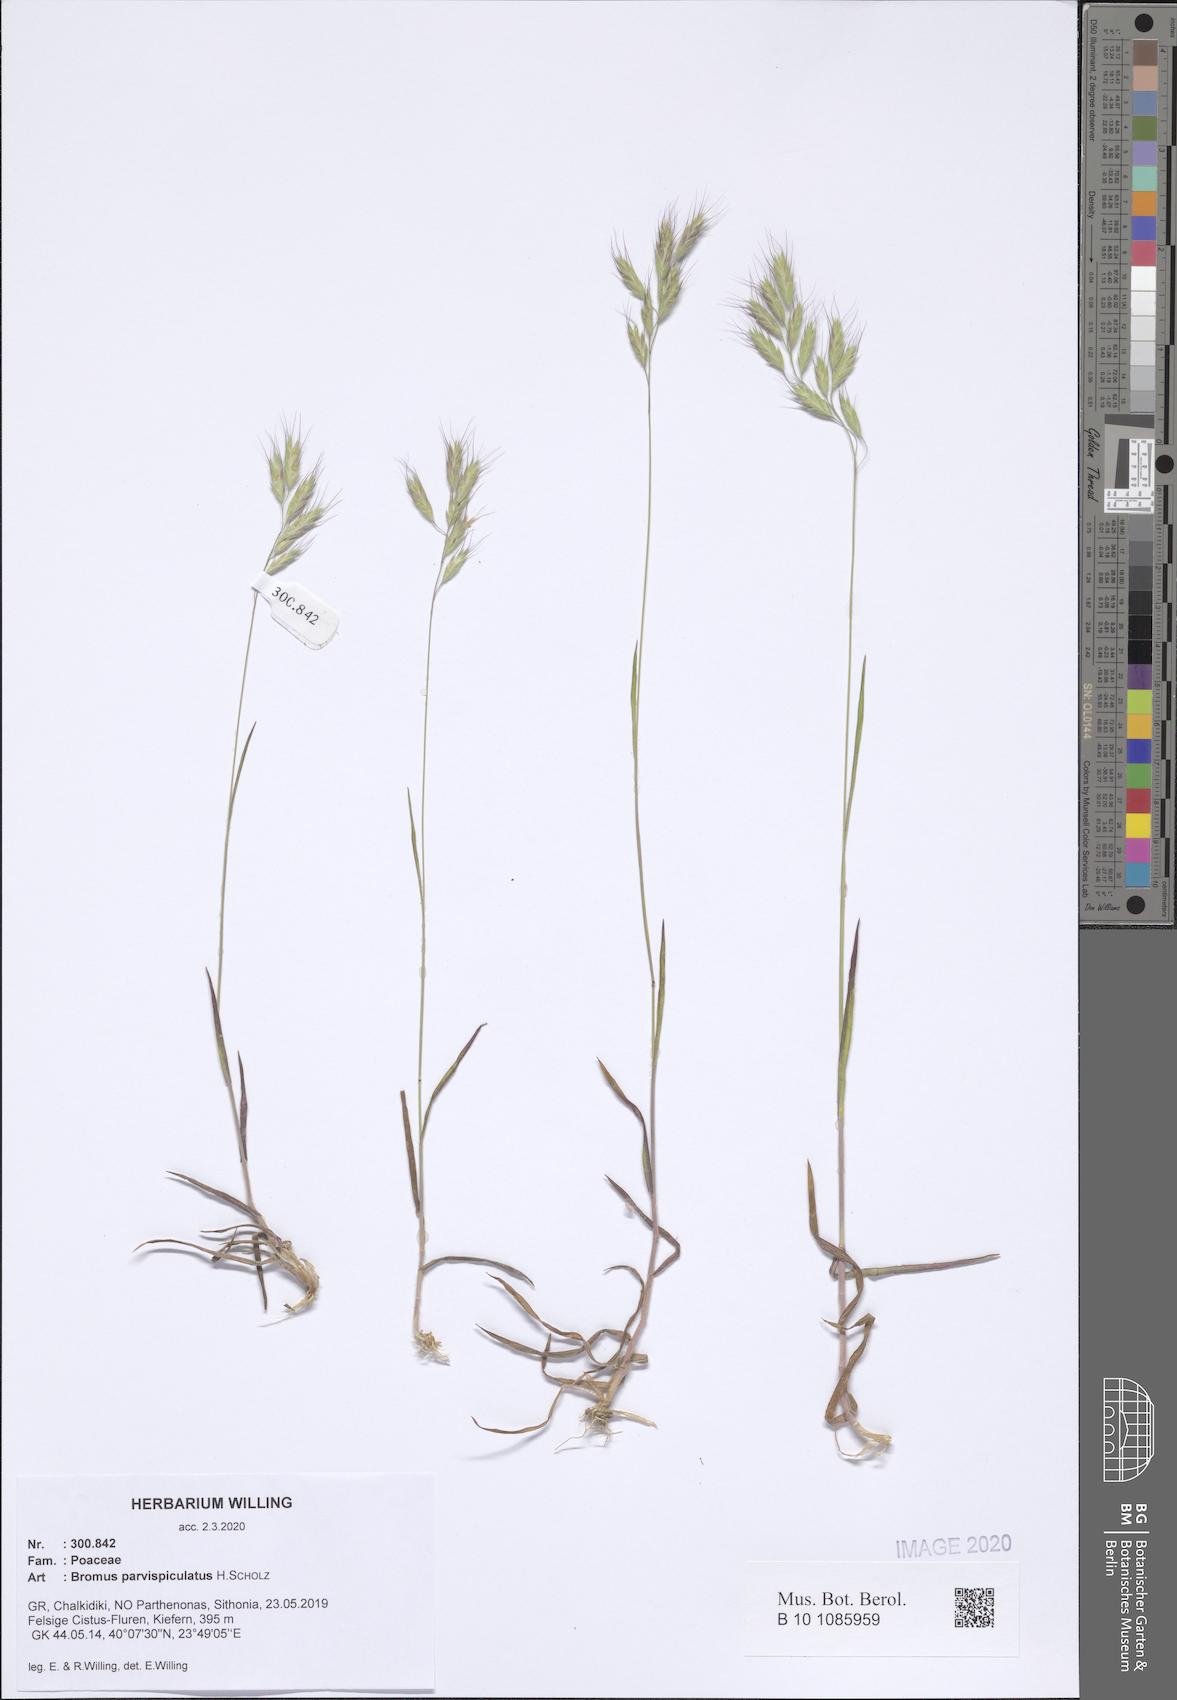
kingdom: Plantae
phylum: Tracheophyta
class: Liliopsida
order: Poales
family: Poaceae
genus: Bromus
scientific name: Bromus hordeaceus
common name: Soft brome
